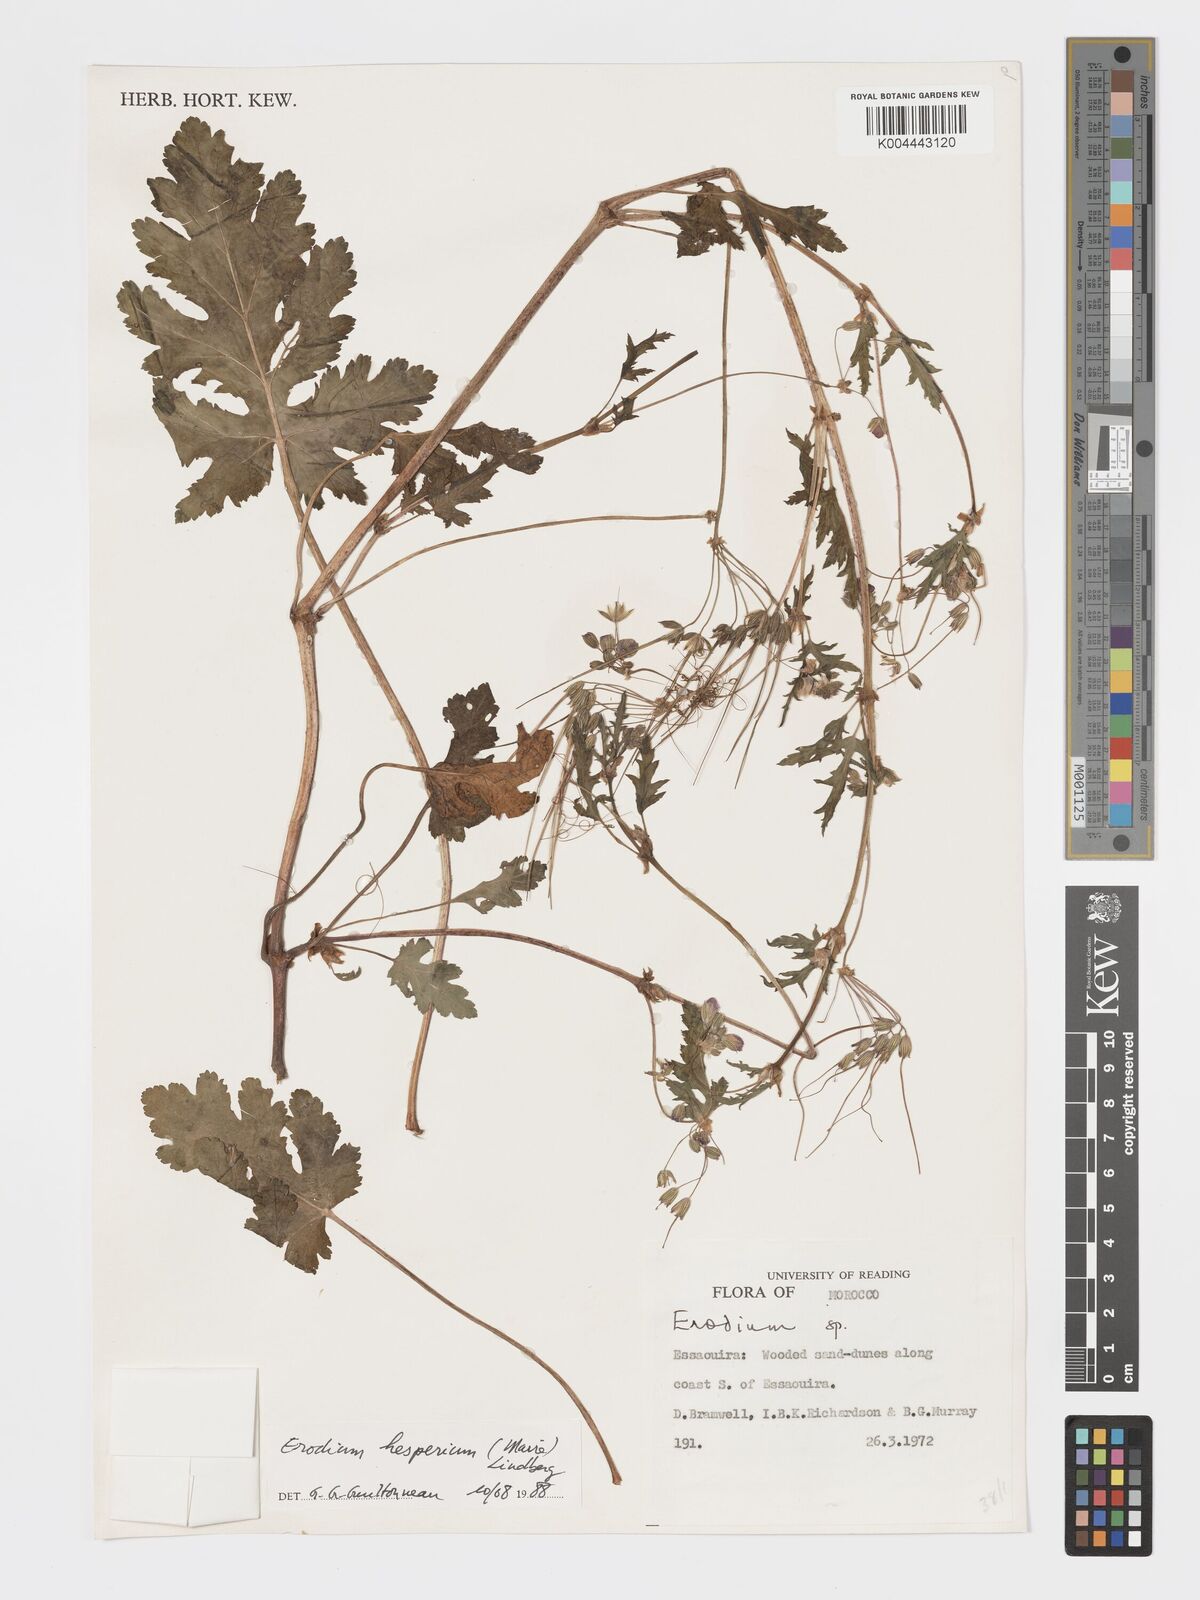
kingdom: Plantae
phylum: Tracheophyta
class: Magnoliopsida
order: Geraniales
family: Geraniaceae
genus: Erodium
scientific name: Erodium hesperium
